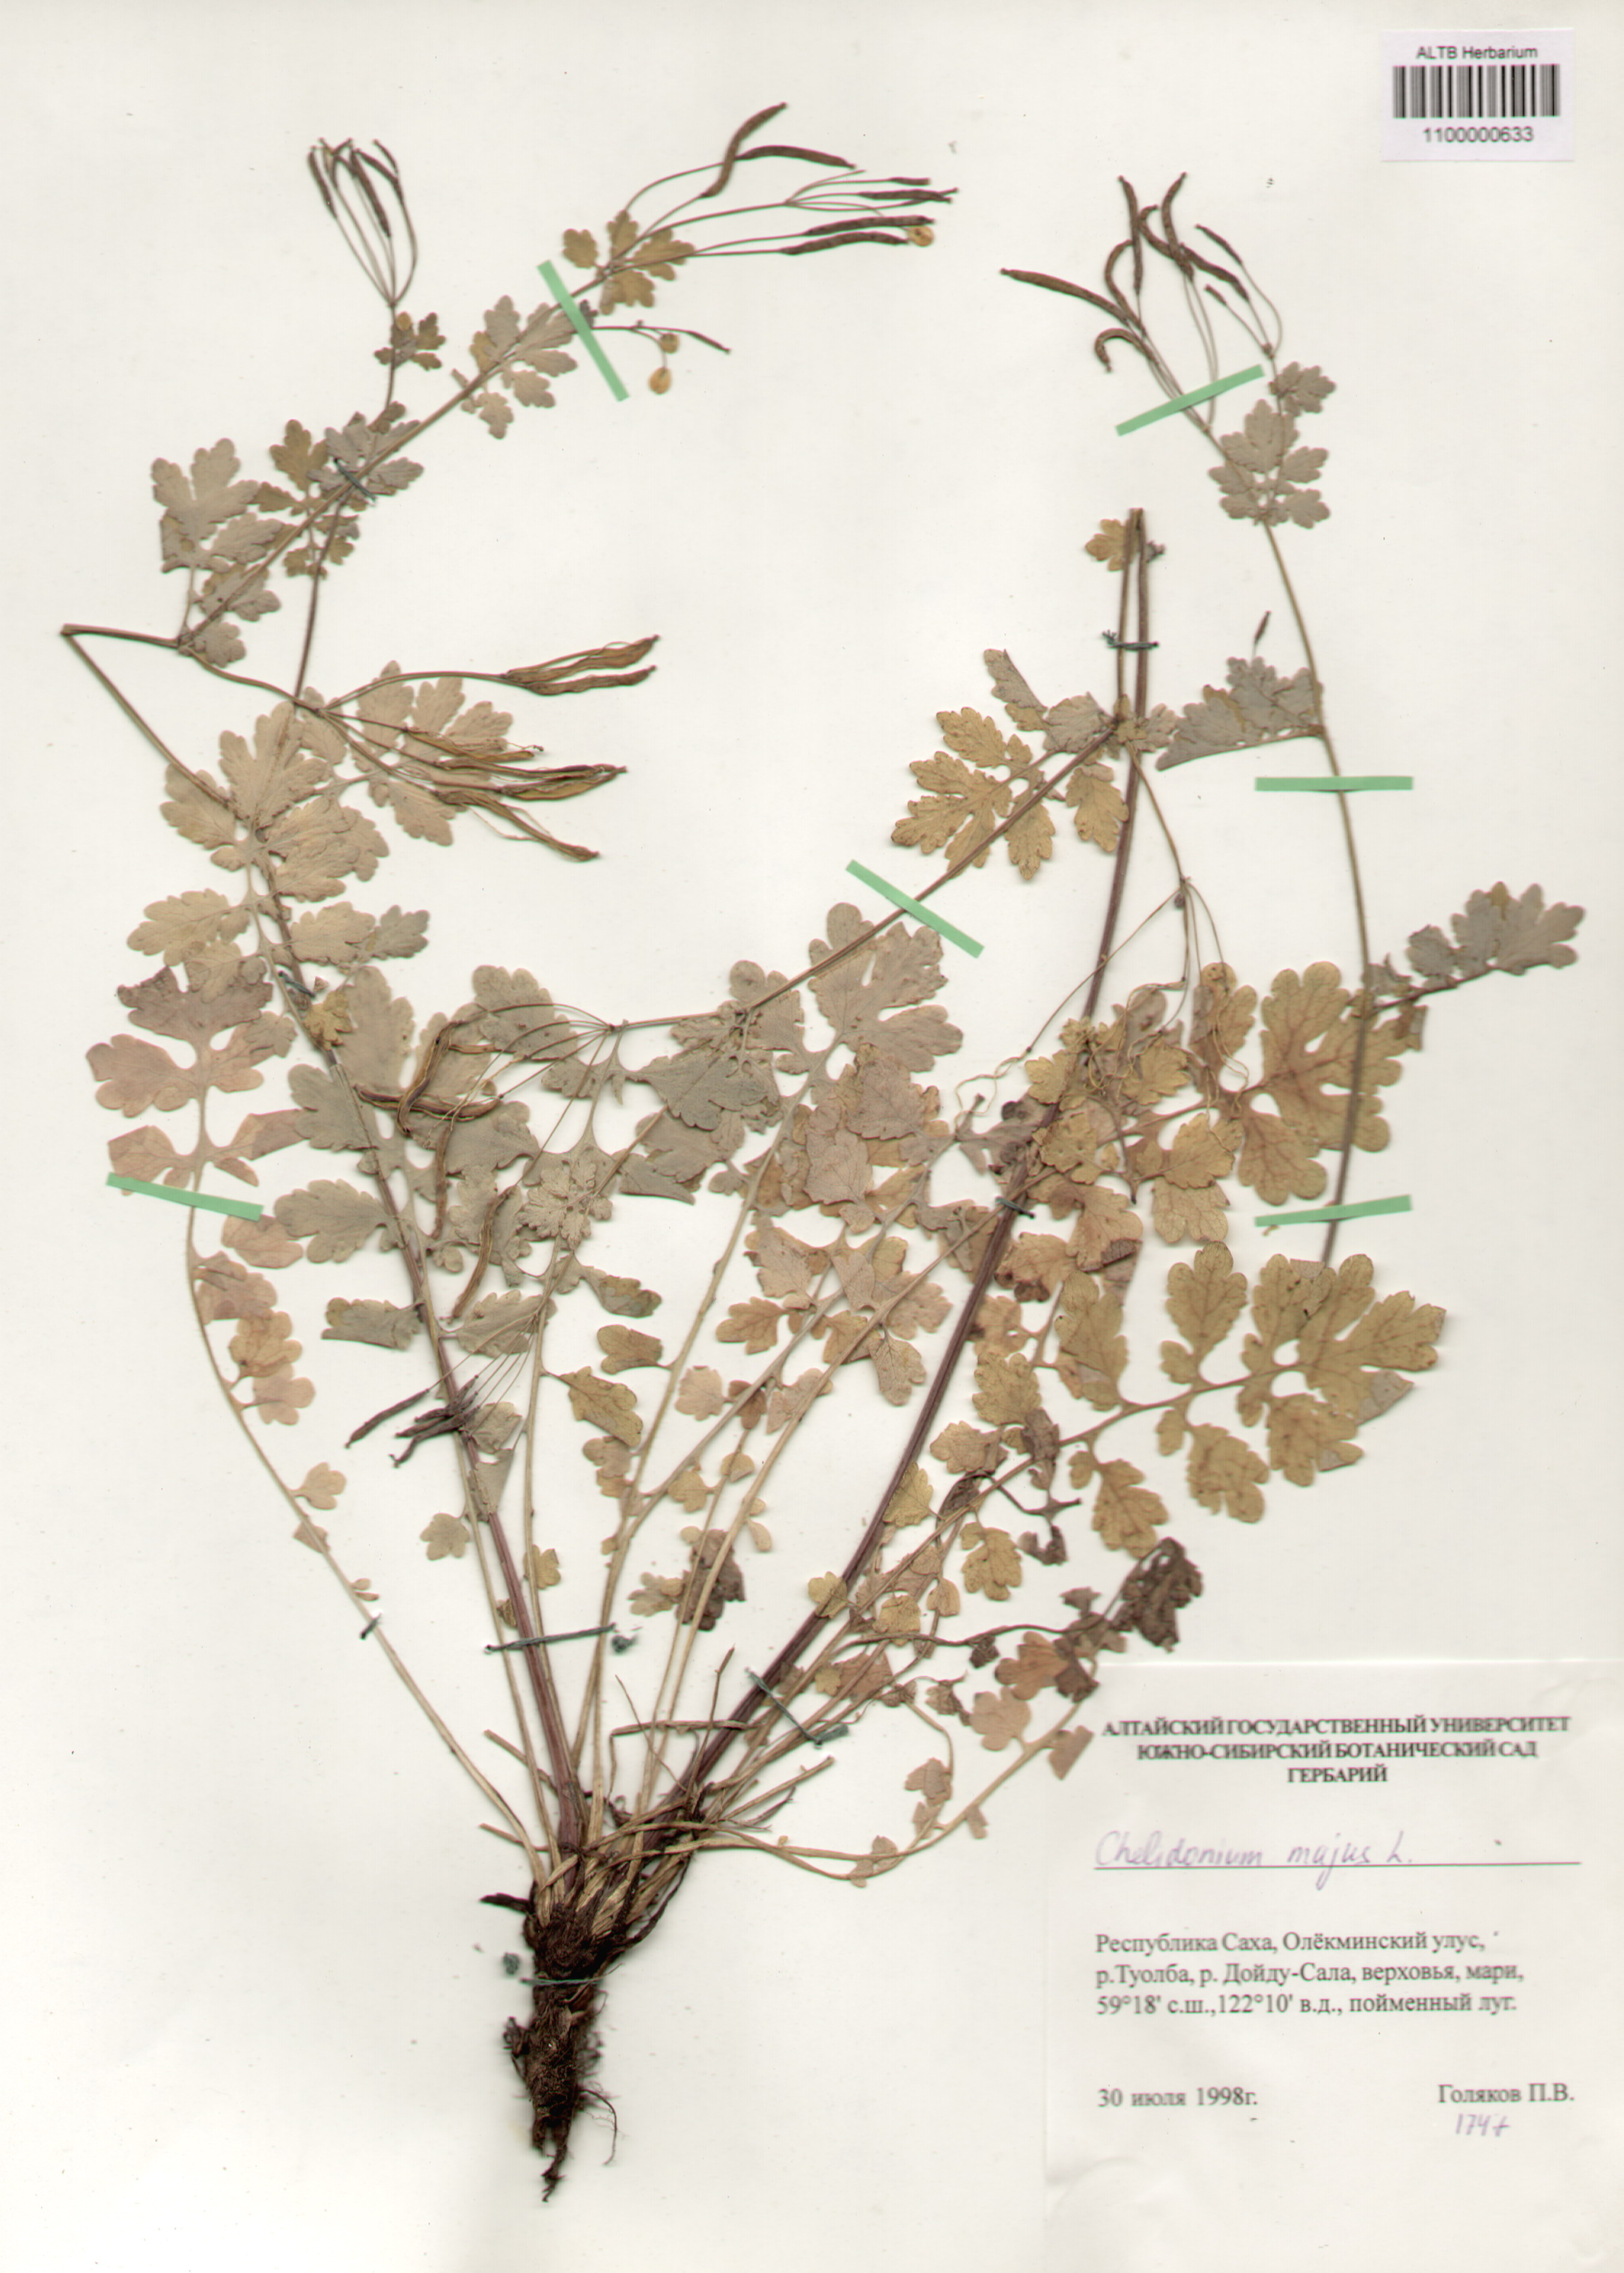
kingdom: Plantae
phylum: Tracheophyta
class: Magnoliopsida
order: Ranunculales
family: Papaveraceae
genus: Chelidonium
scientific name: Chelidonium majus
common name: Greater celandine
